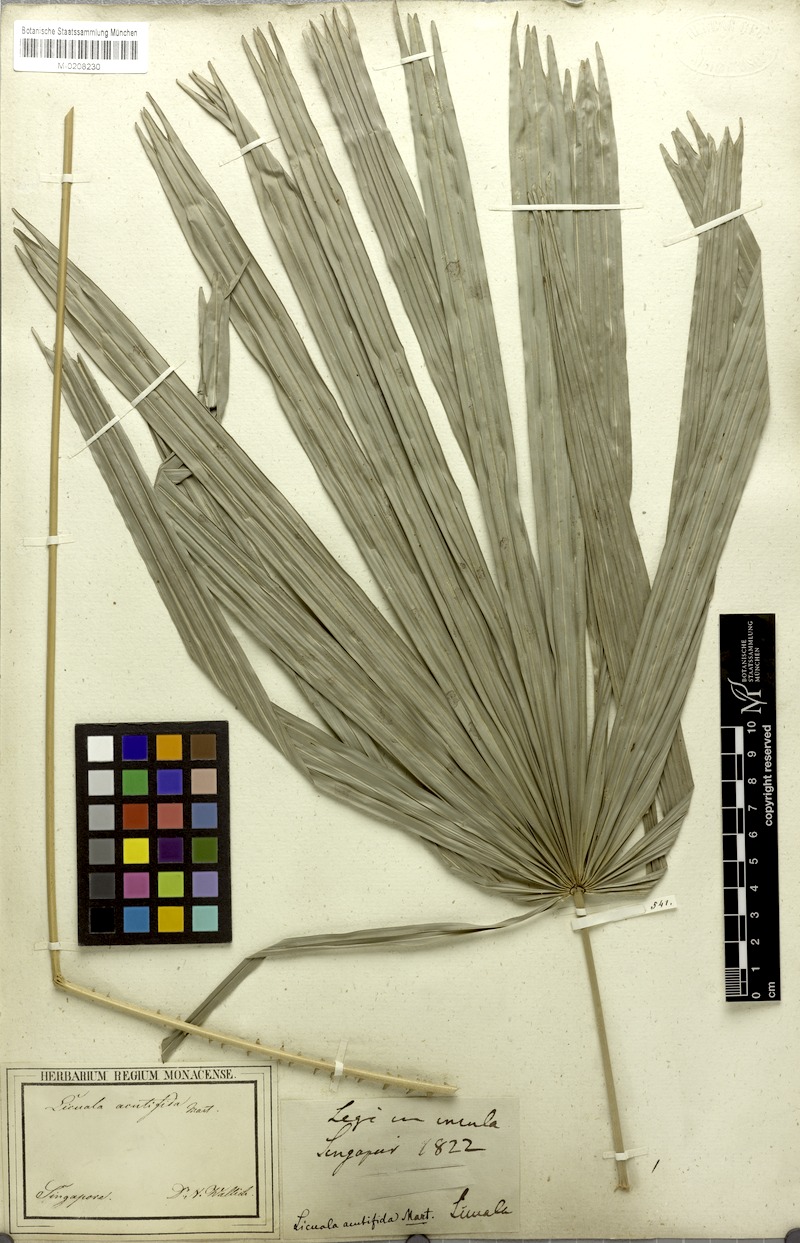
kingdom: Plantae
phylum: Tracheophyta
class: Liliopsida
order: Arecales
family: Arecaceae
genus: Licuala
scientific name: Licuala acutifida
